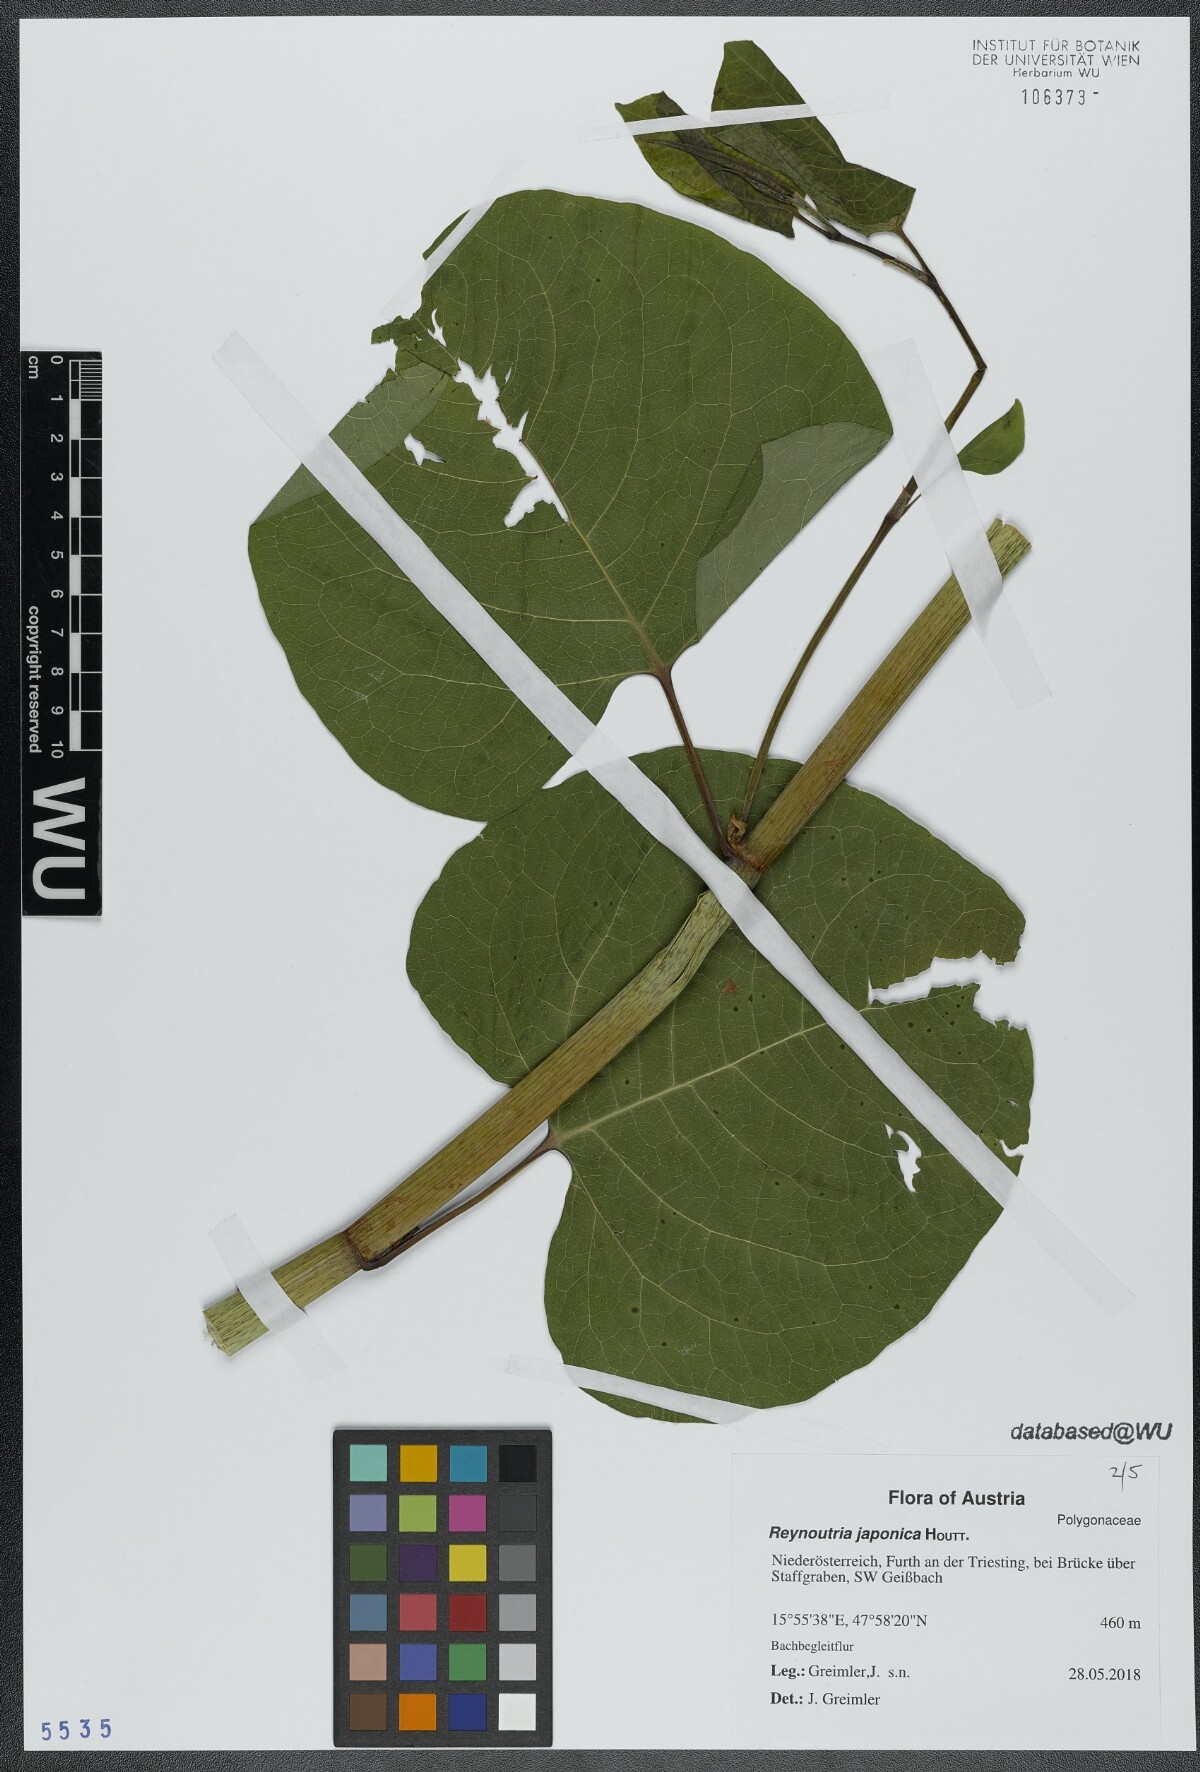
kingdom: Plantae
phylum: Tracheophyta
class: Magnoliopsida
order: Caryophyllales
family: Polygonaceae
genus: Reynoutria
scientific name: Reynoutria bohemica
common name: Bohemian knotweed
